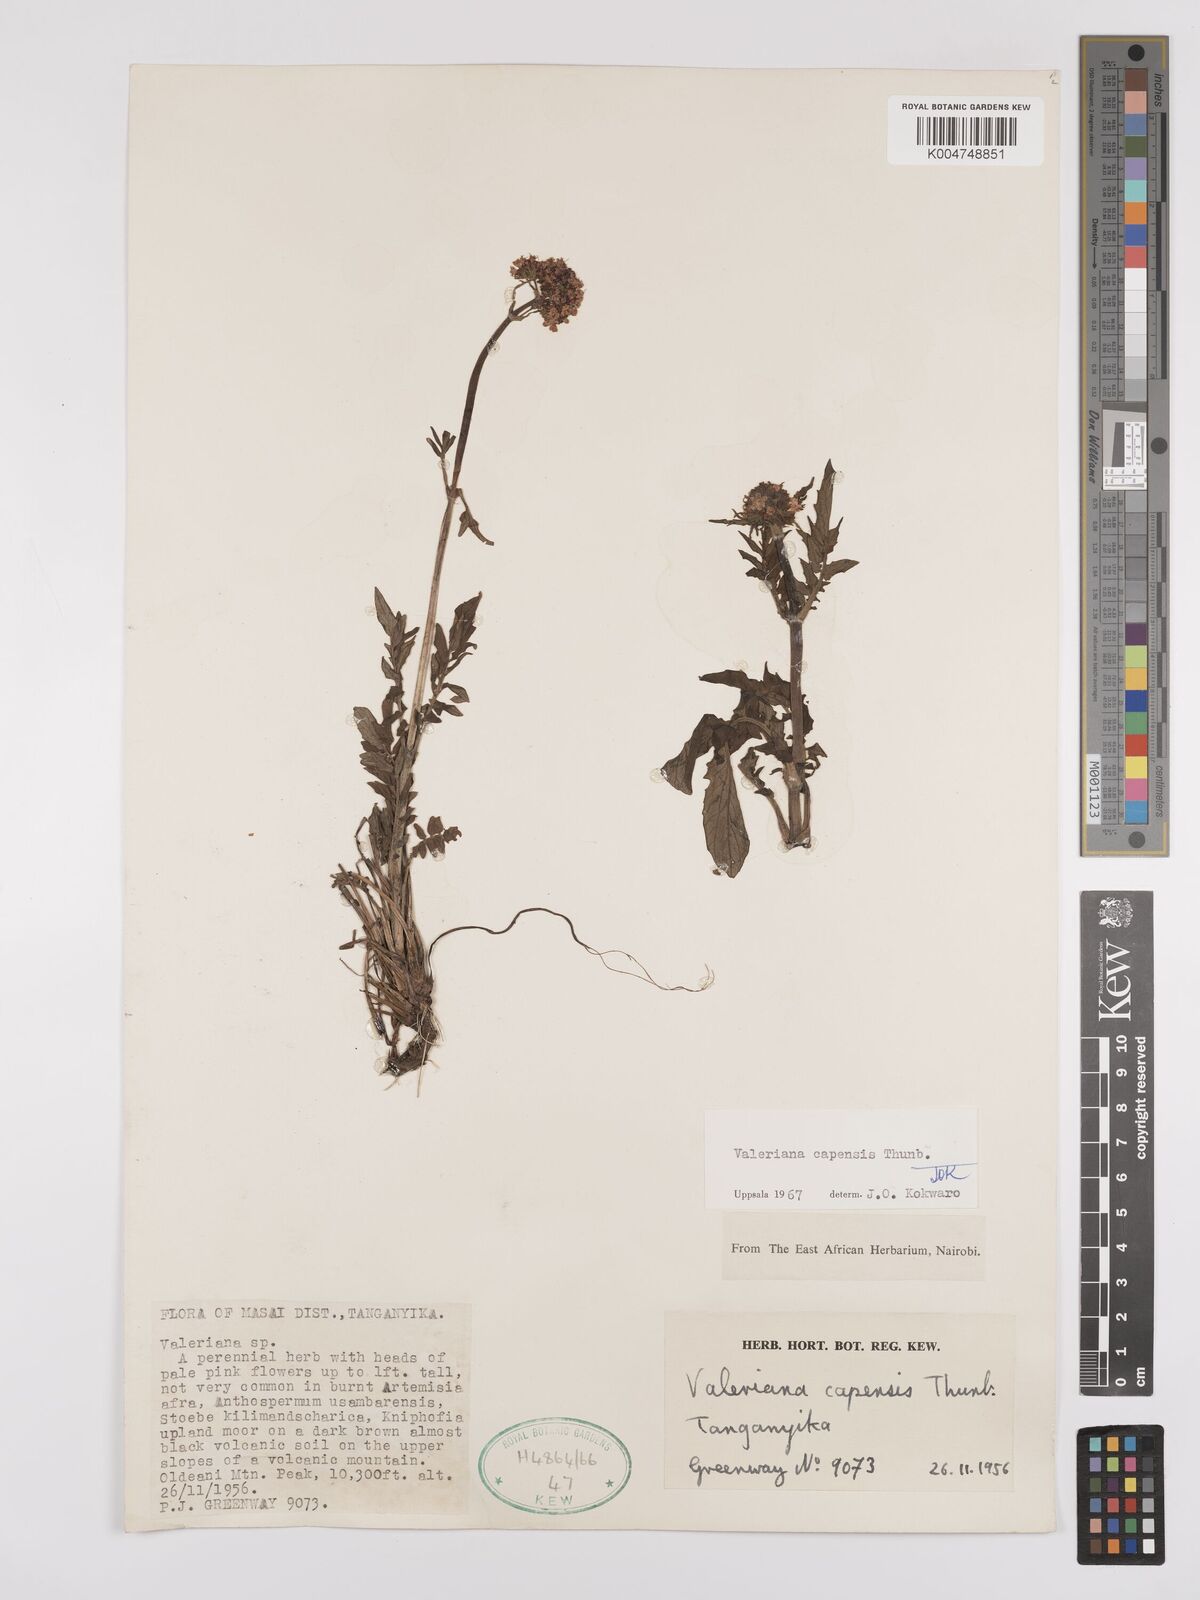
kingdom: Plantae
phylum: Tracheophyta
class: Magnoliopsida
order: Dipsacales
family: Caprifoliaceae
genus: Valeriana
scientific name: Valeriana capensis
